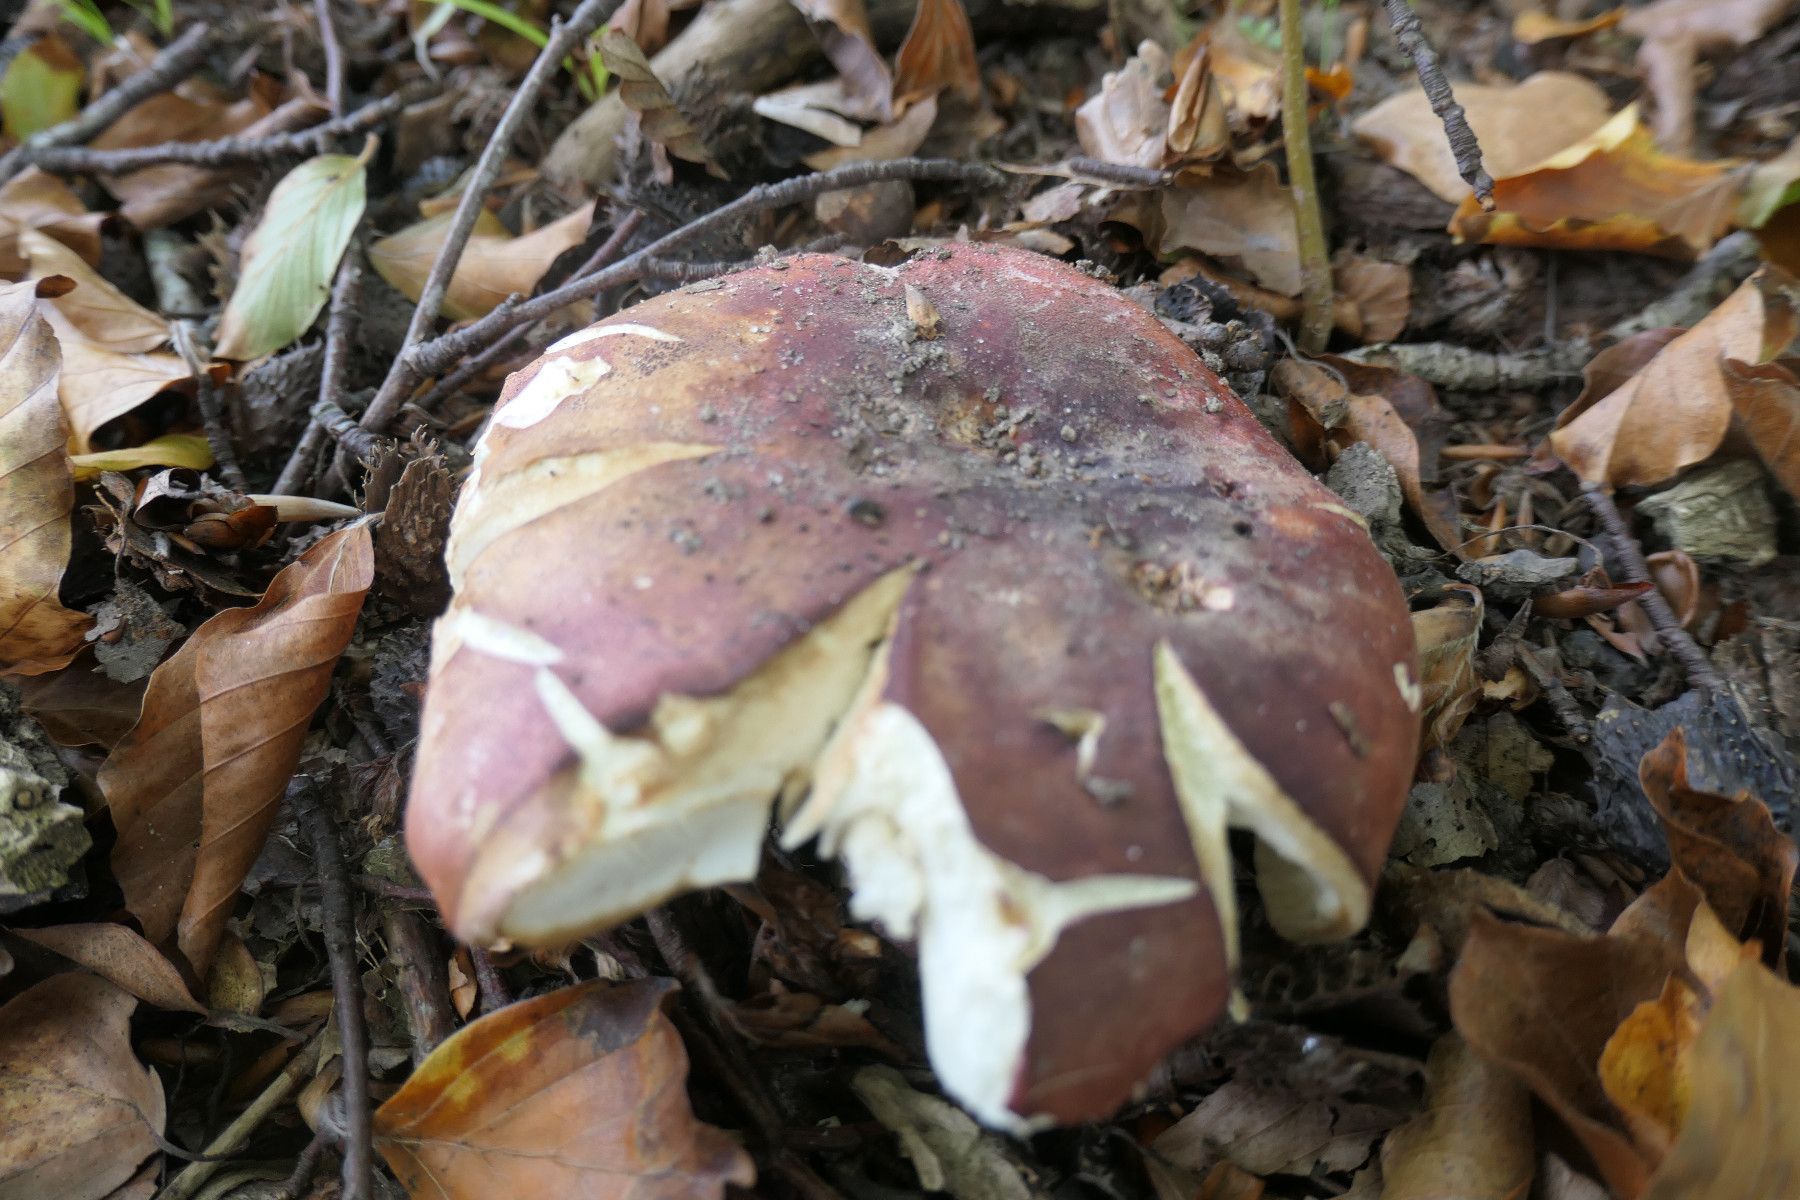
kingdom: Fungi
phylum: Basidiomycota
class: Agaricomycetes
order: Russulales
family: Russulaceae
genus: Russula
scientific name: Russula faginea
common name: bøge-skørhat
